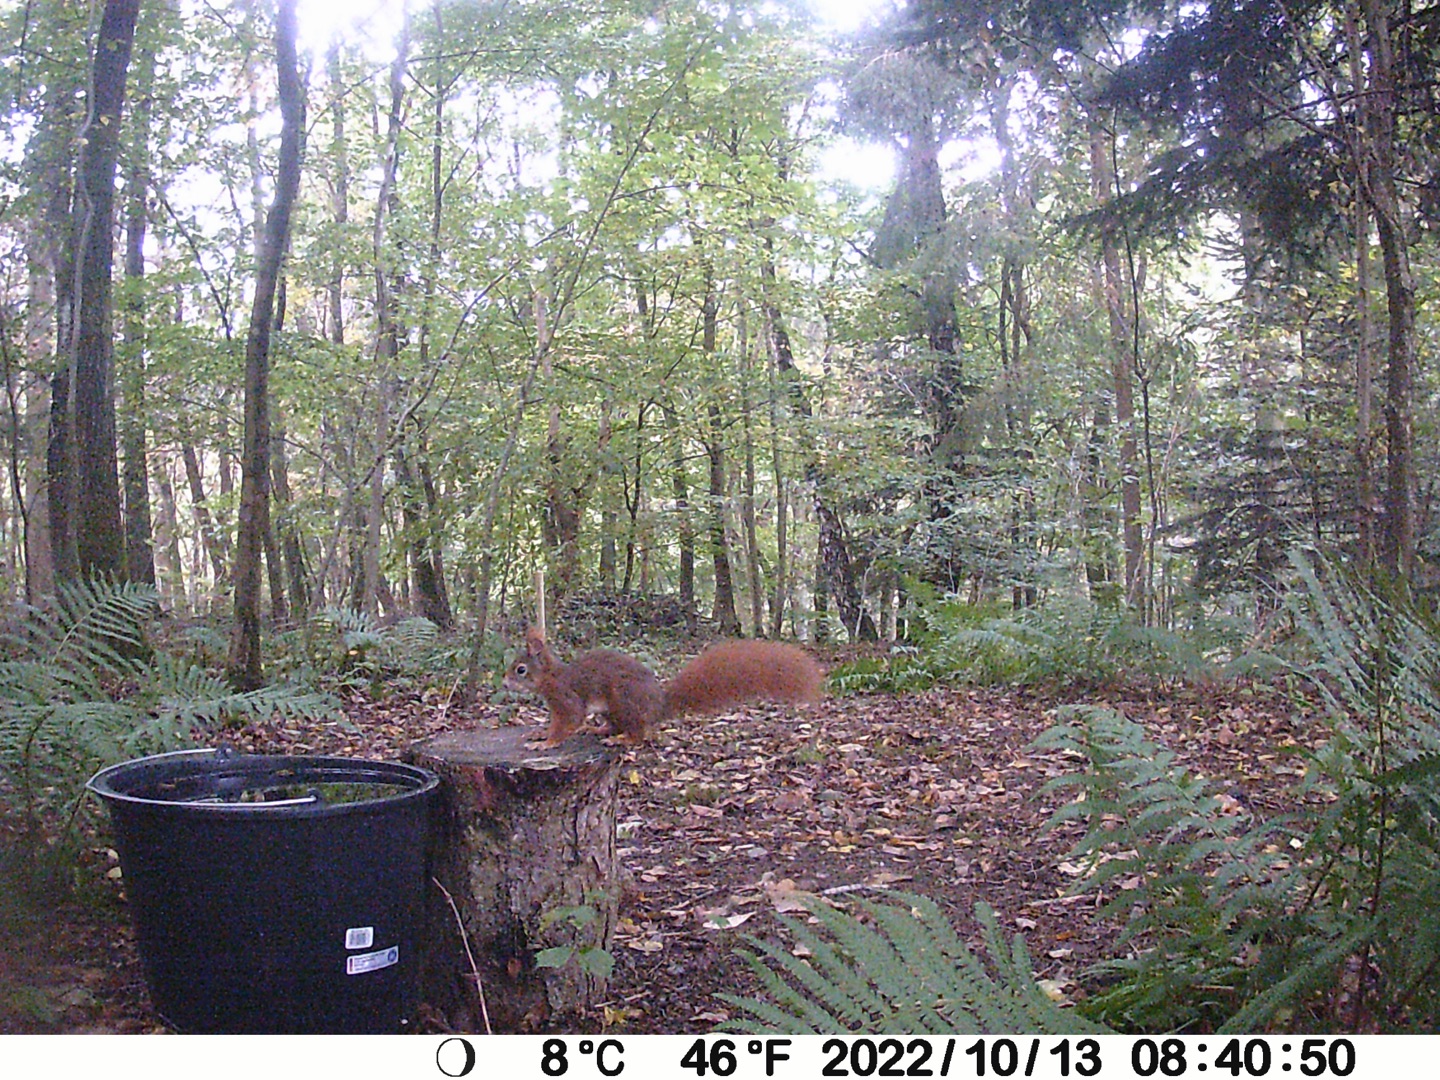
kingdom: Animalia
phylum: Chordata
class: Mammalia
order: Rodentia
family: Sciuridae
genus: Sciurus
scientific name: Sciurus vulgaris
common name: Egern
